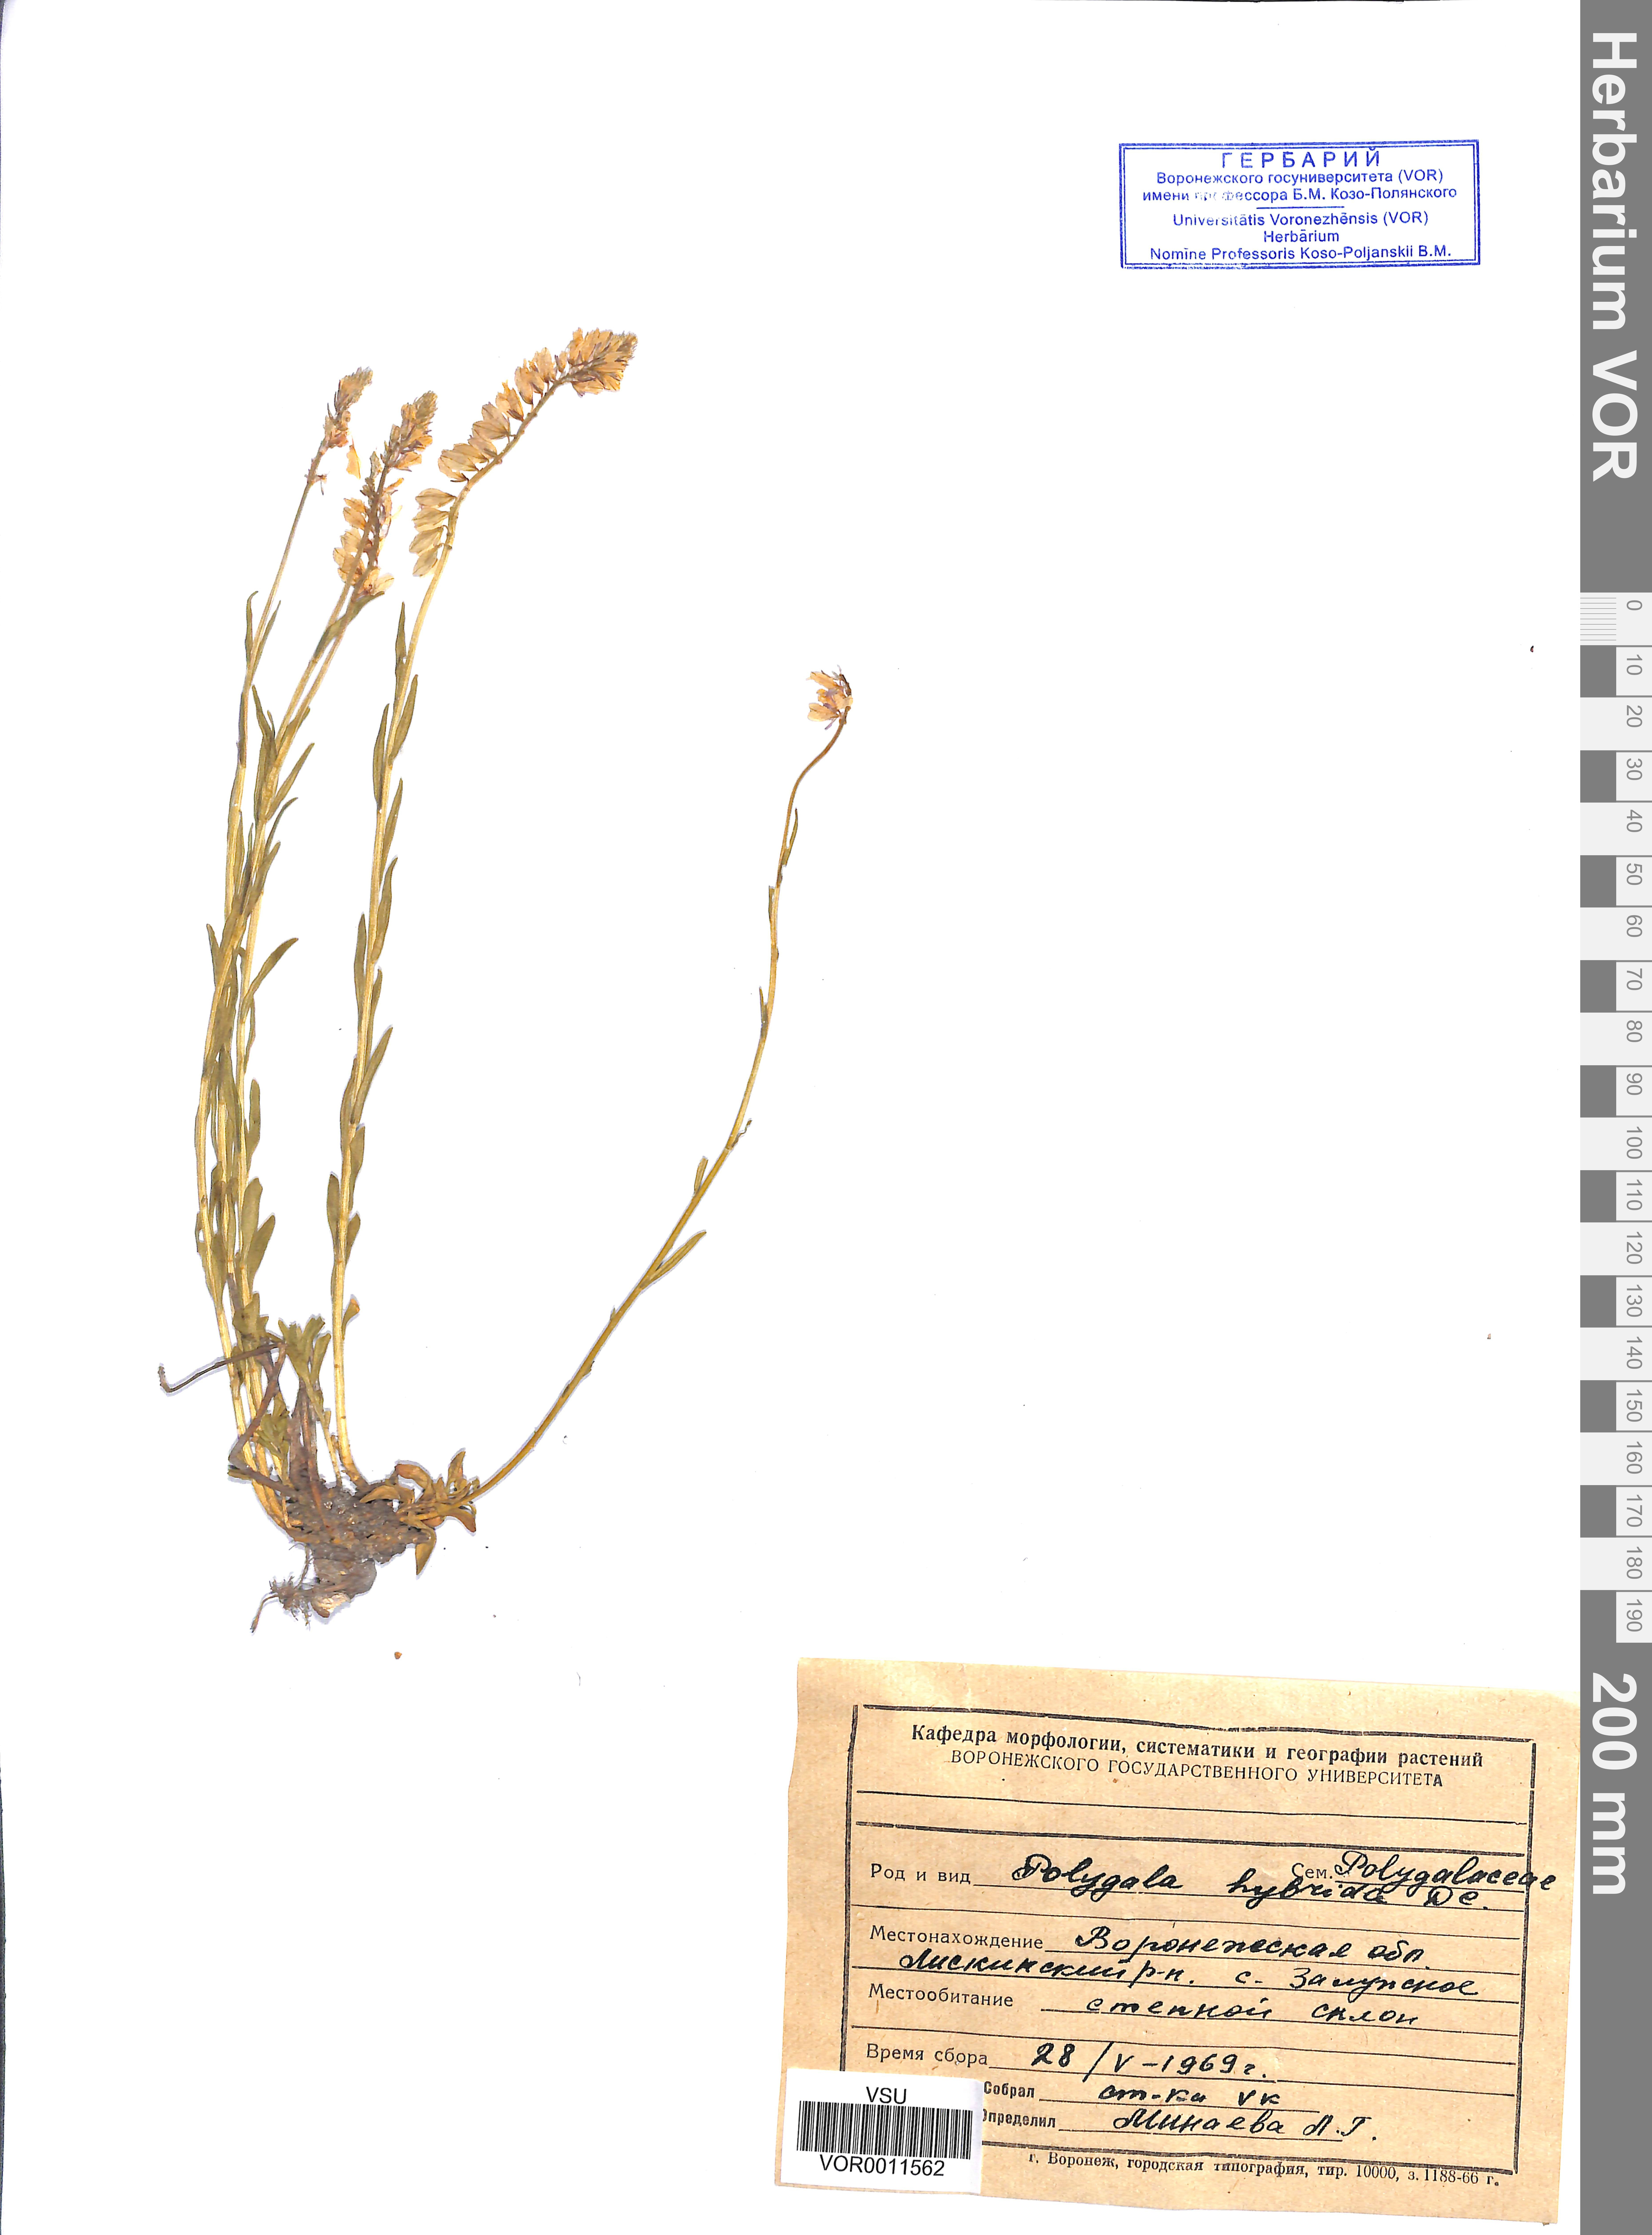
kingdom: Plantae
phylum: Tracheophyta
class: Magnoliopsida
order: Fabales
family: Polygalaceae
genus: Polygala
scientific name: Polygala comosa
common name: Tufted milkwort
